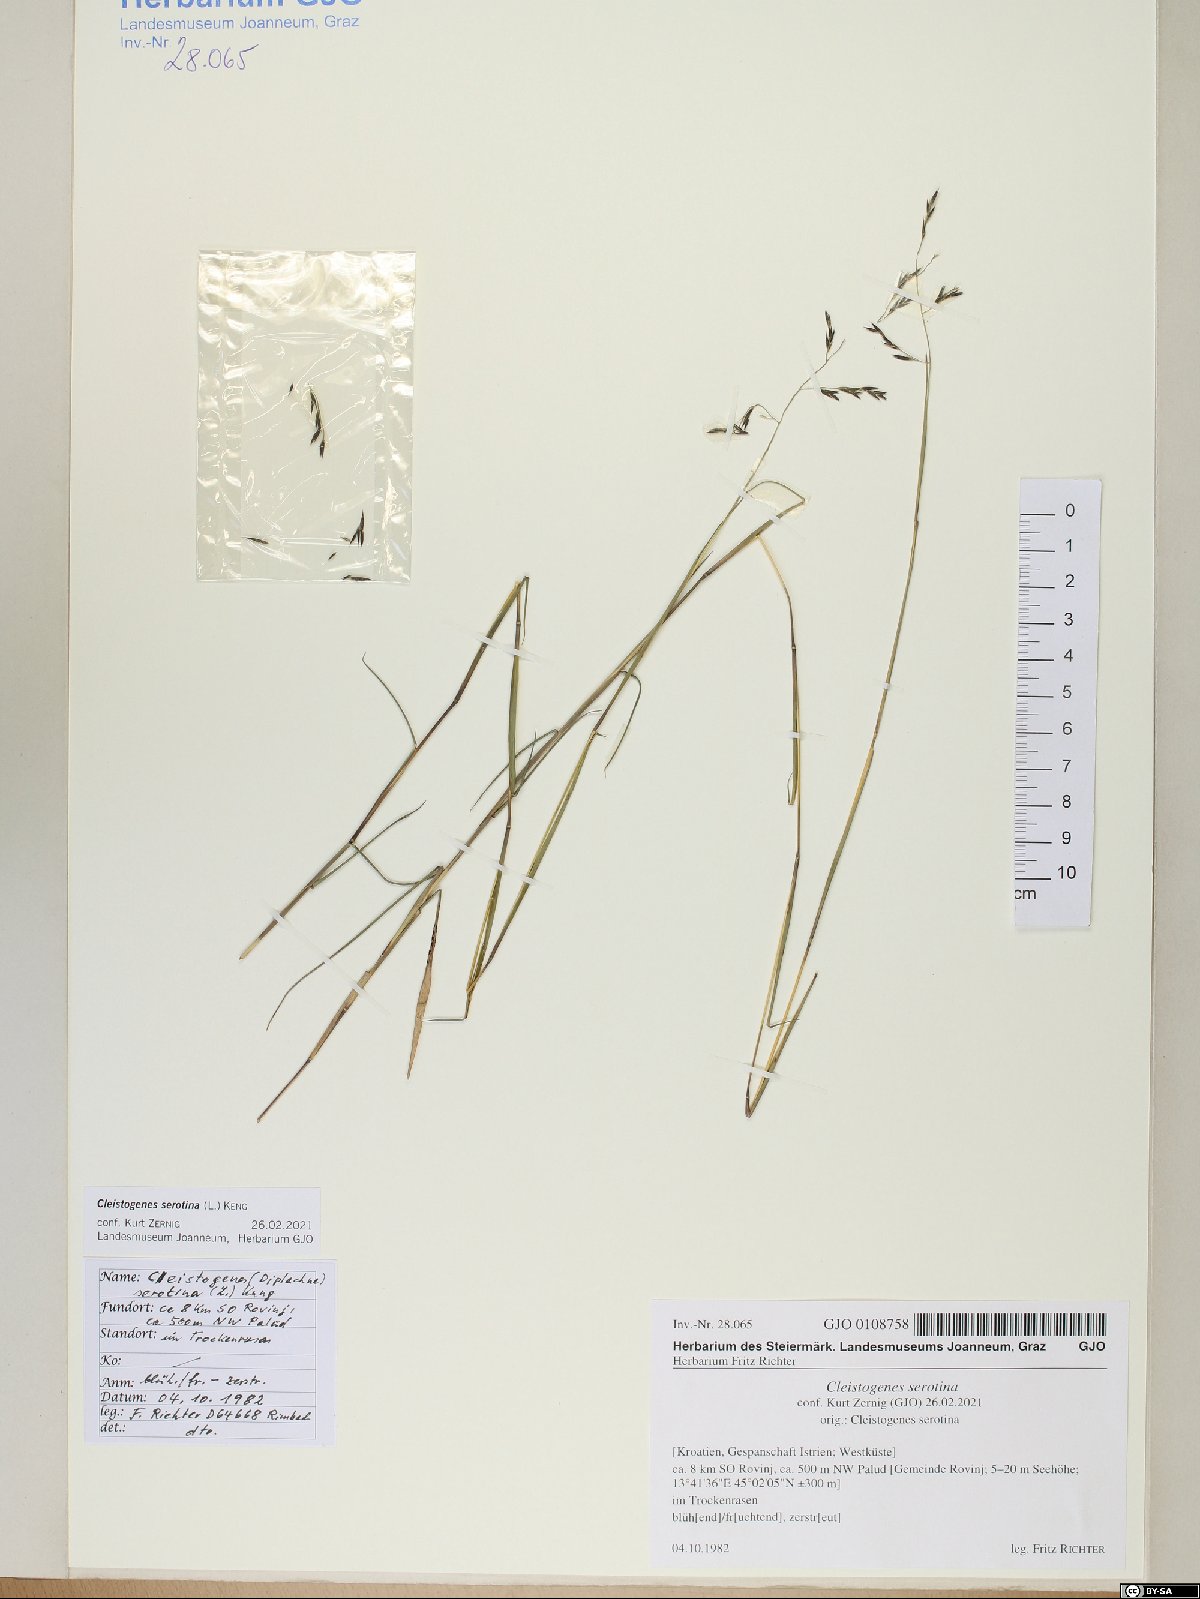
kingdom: Plantae
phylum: Tracheophyta
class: Liliopsida
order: Poales
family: Poaceae
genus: Cleistogenes
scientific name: Cleistogenes serotina
